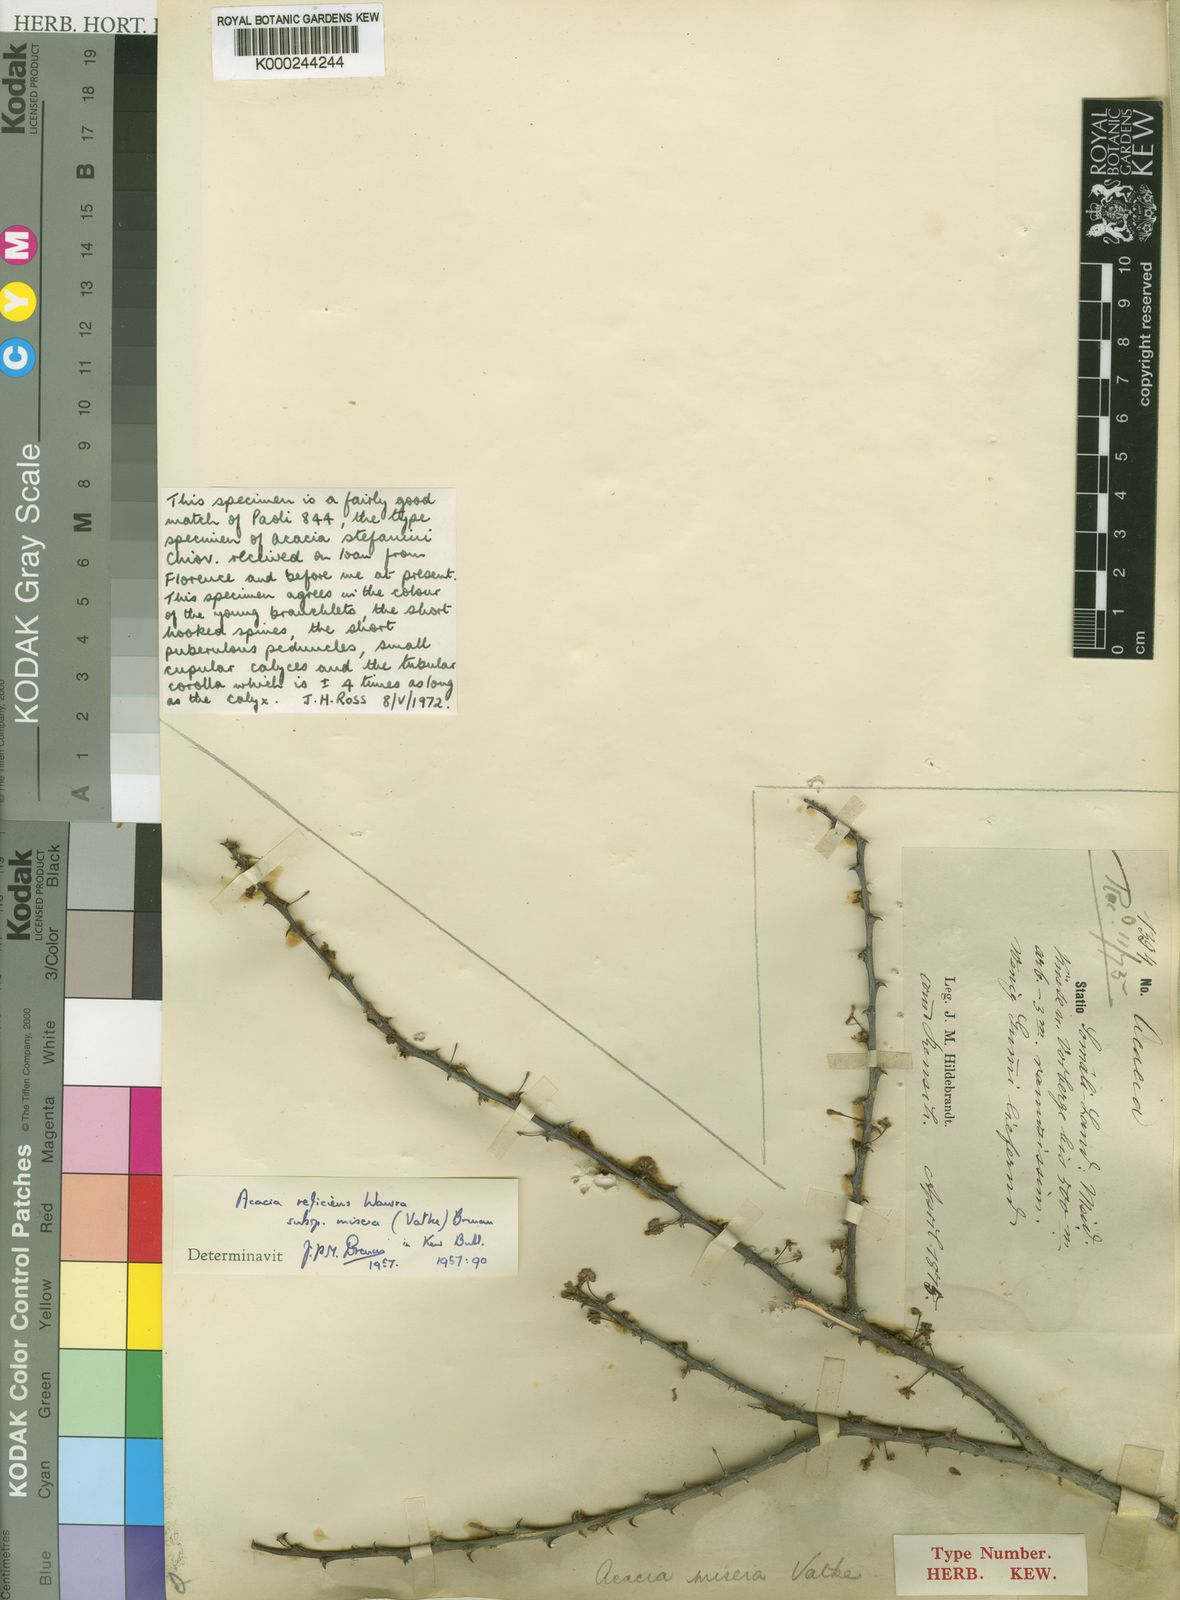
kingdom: Plantae
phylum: Tracheophyta
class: Magnoliopsida
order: Fabales
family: Fabaceae
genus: Vachellia
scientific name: Vachellia reficiens
